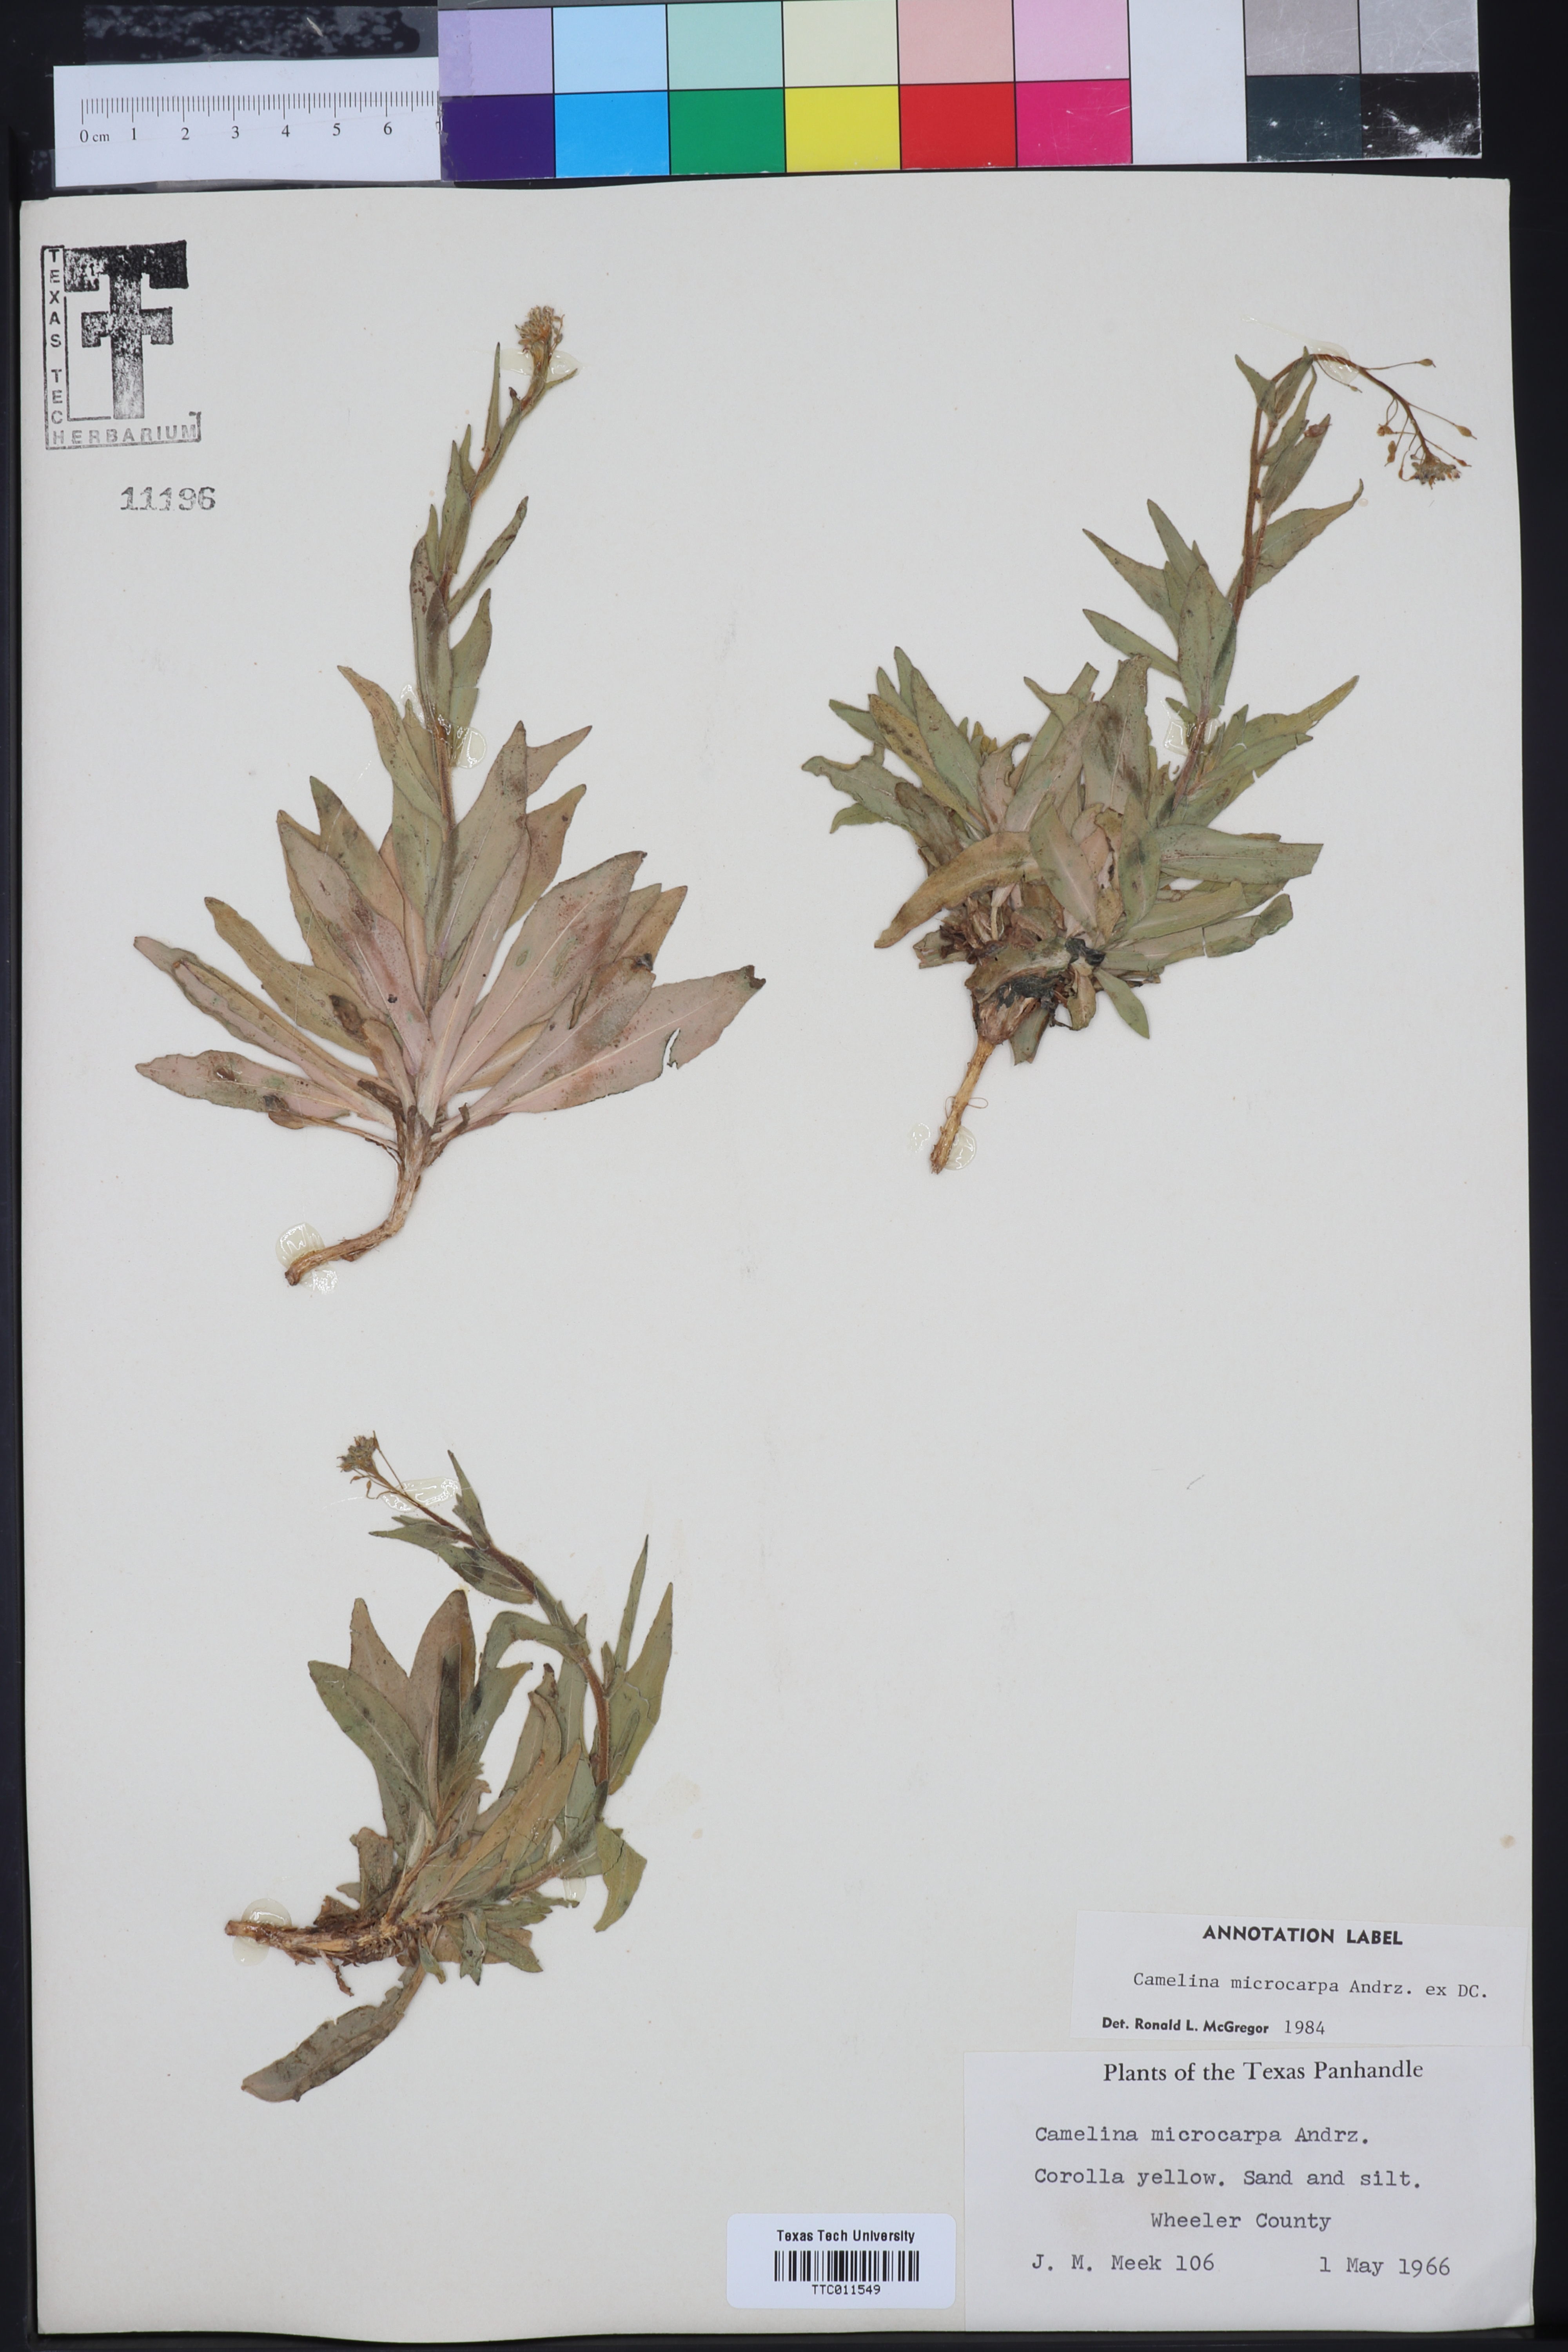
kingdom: Plantae
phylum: Tracheophyta
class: Magnoliopsida
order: Brassicales
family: Brassicaceae
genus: Camelina
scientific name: Camelina microcarpa
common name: Lesser gold-of-pleasure
